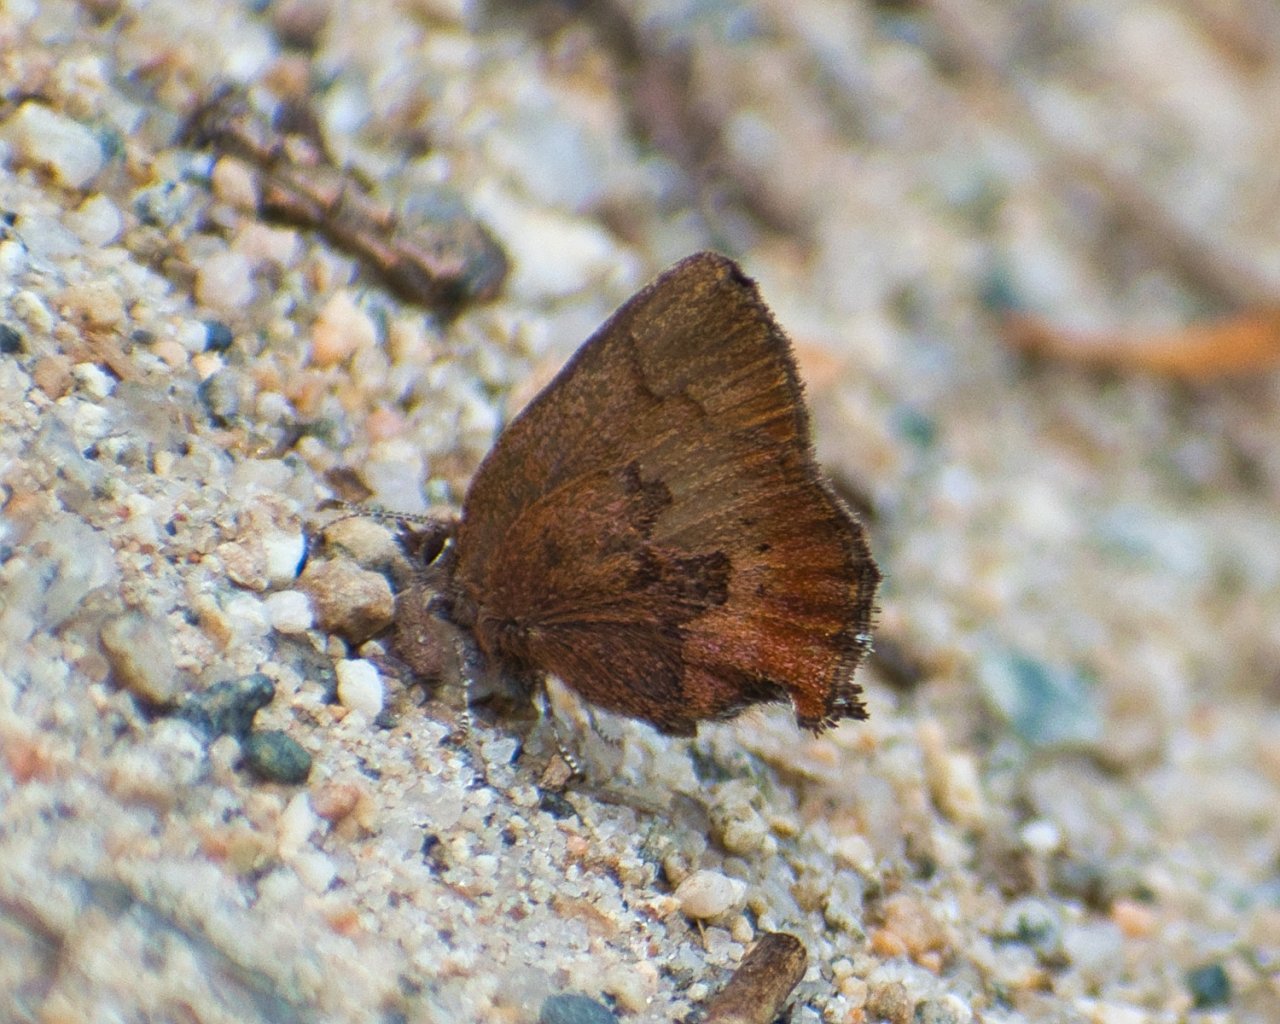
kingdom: Animalia
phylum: Arthropoda
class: Insecta
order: Lepidoptera
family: Lycaenidae
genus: Incisalia
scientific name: Incisalia irioides
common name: Brown Elfin
